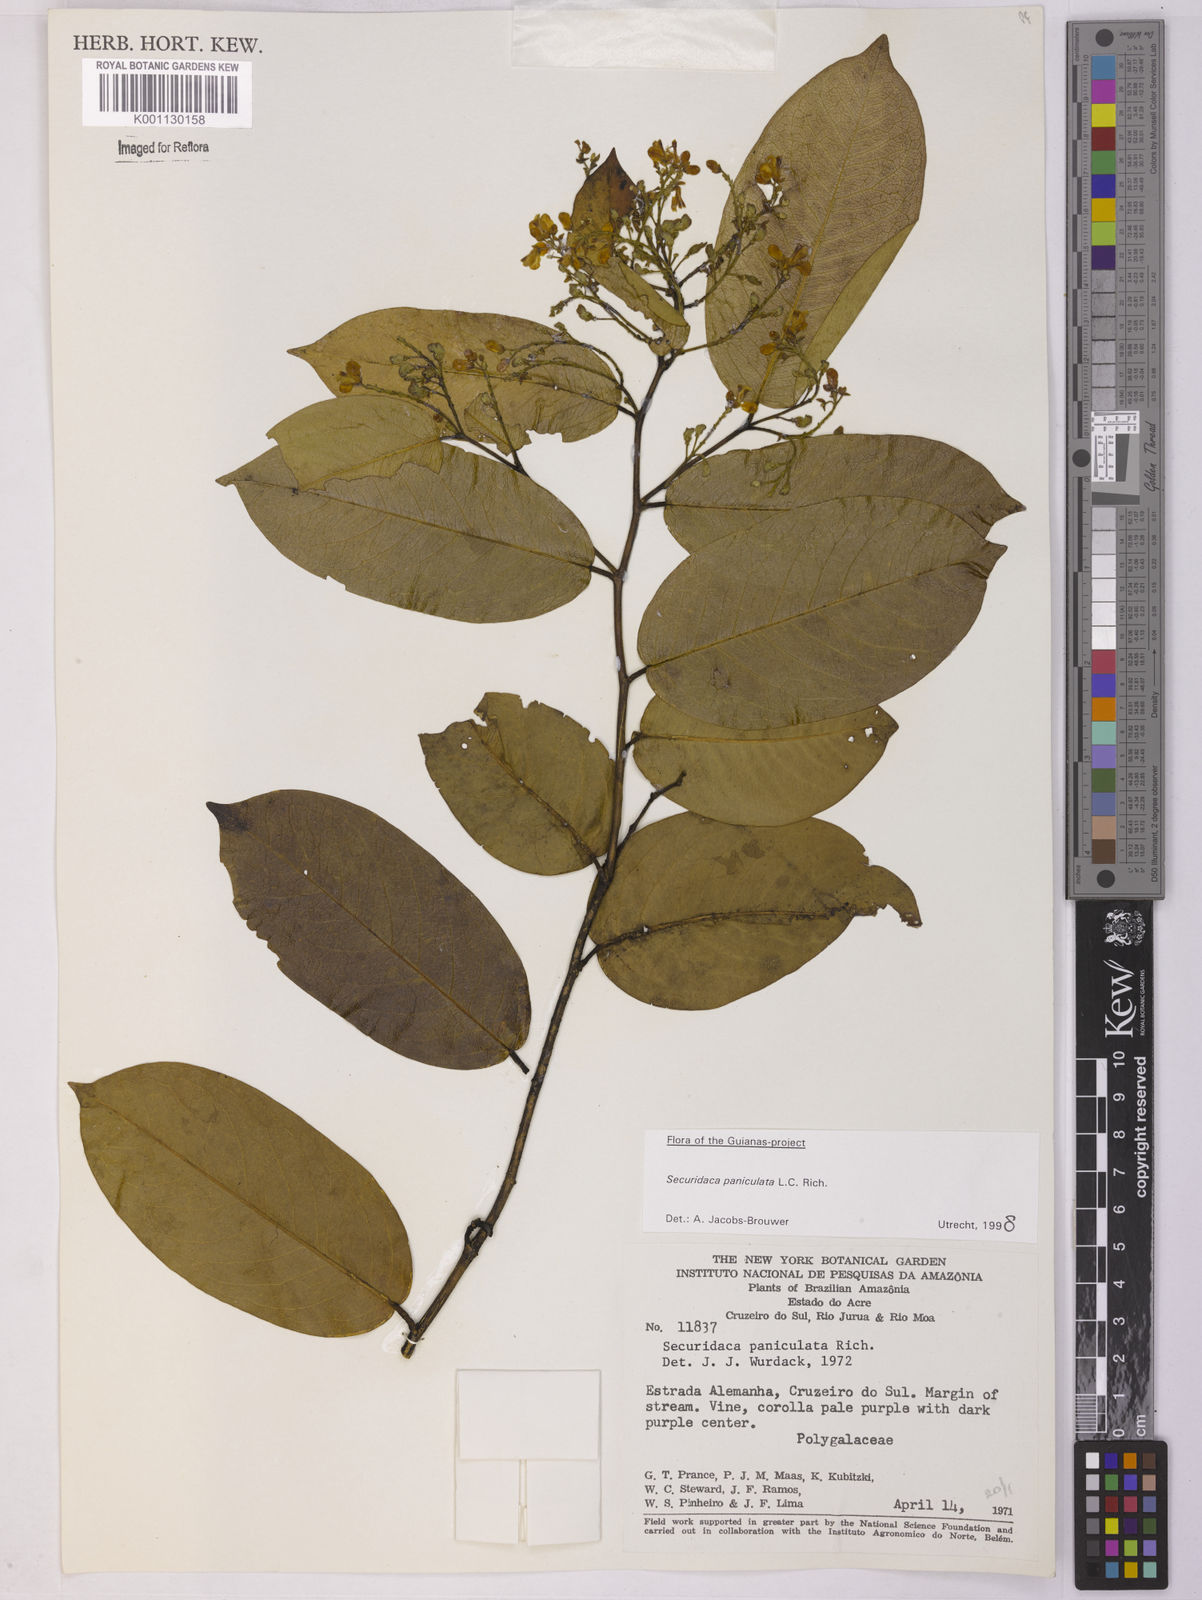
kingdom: Plantae
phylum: Tracheophyta
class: Magnoliopsida
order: Fabales
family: Polygalaceae
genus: Securidaca
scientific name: Securidaca paniculata
